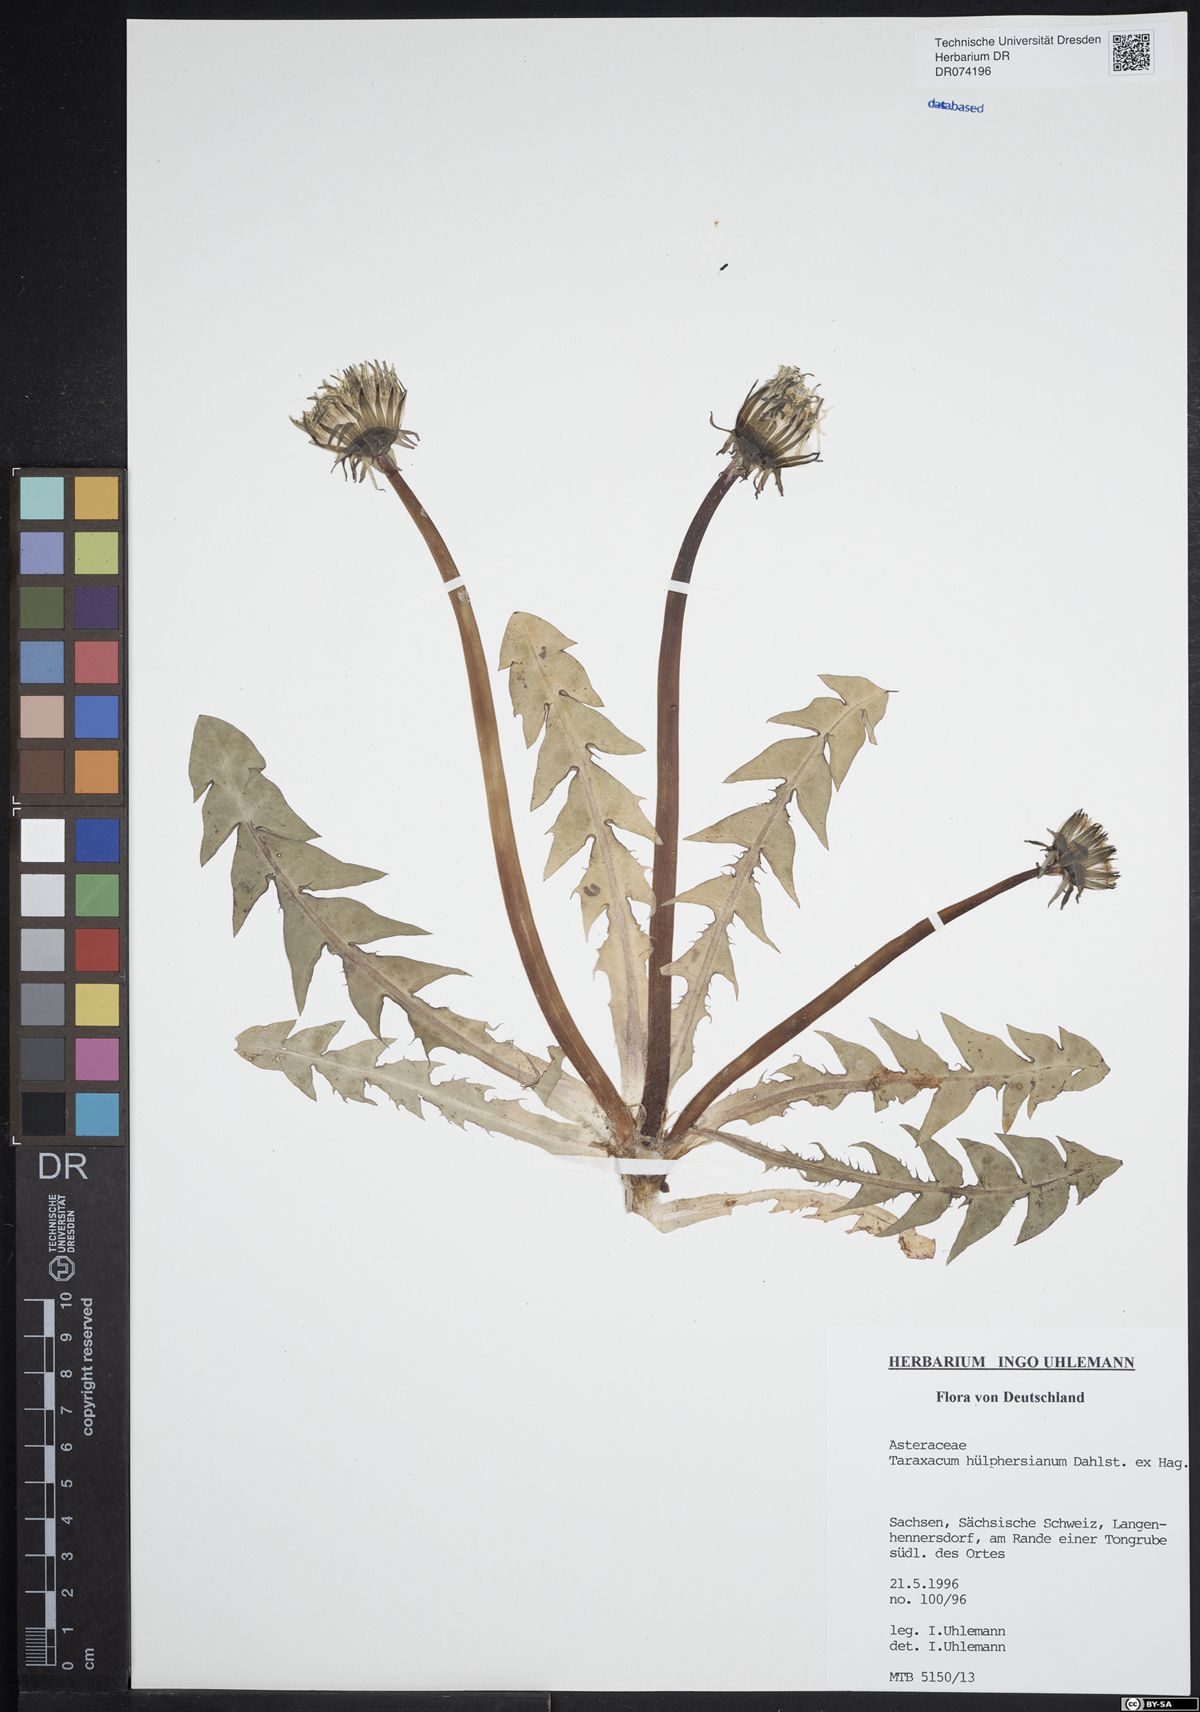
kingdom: Plantae
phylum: Tracheophyta
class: Magnoliopsida
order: Asterales
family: Asteraceae
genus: Taraxacum
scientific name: Taraxacum huelphersianum
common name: Hülphers's dandelion
